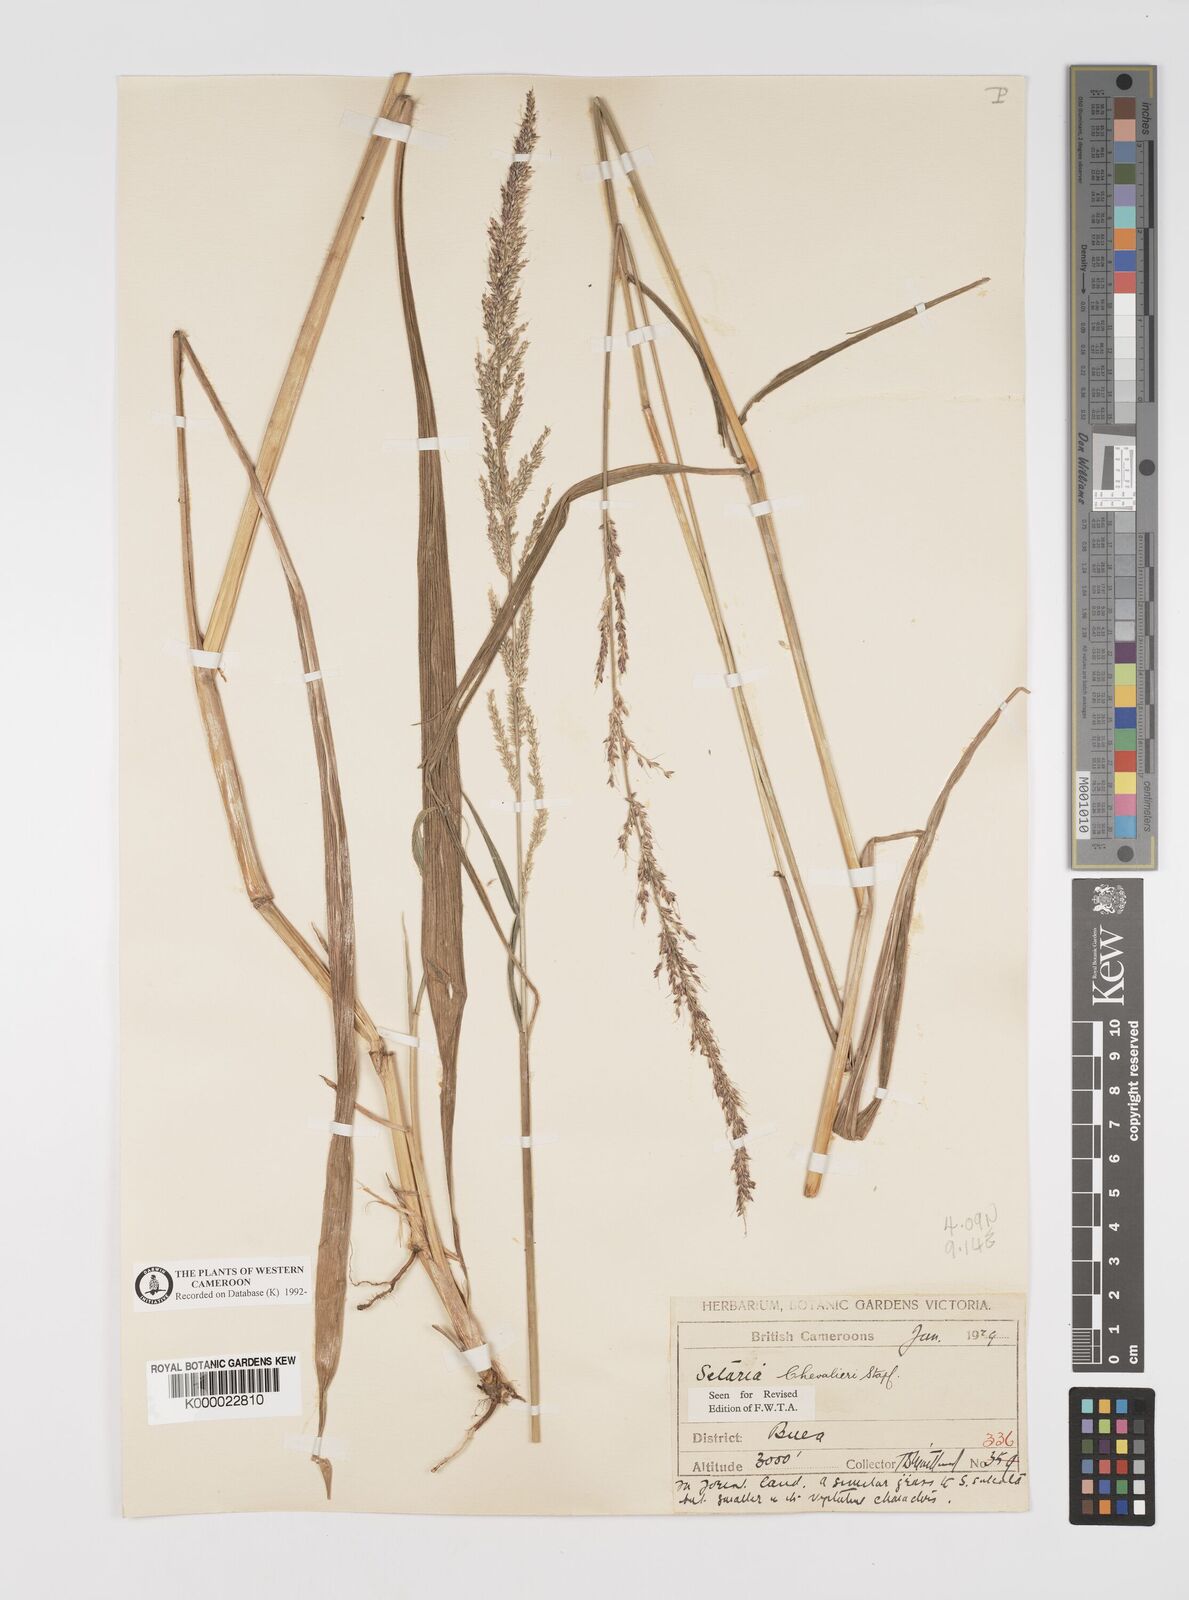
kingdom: Plantae
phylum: Tracheophyta
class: Liliopsida
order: Poales
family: Poaceae
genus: Setaria
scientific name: Setaria megaphylla
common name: Bigleaf bristlegrass
